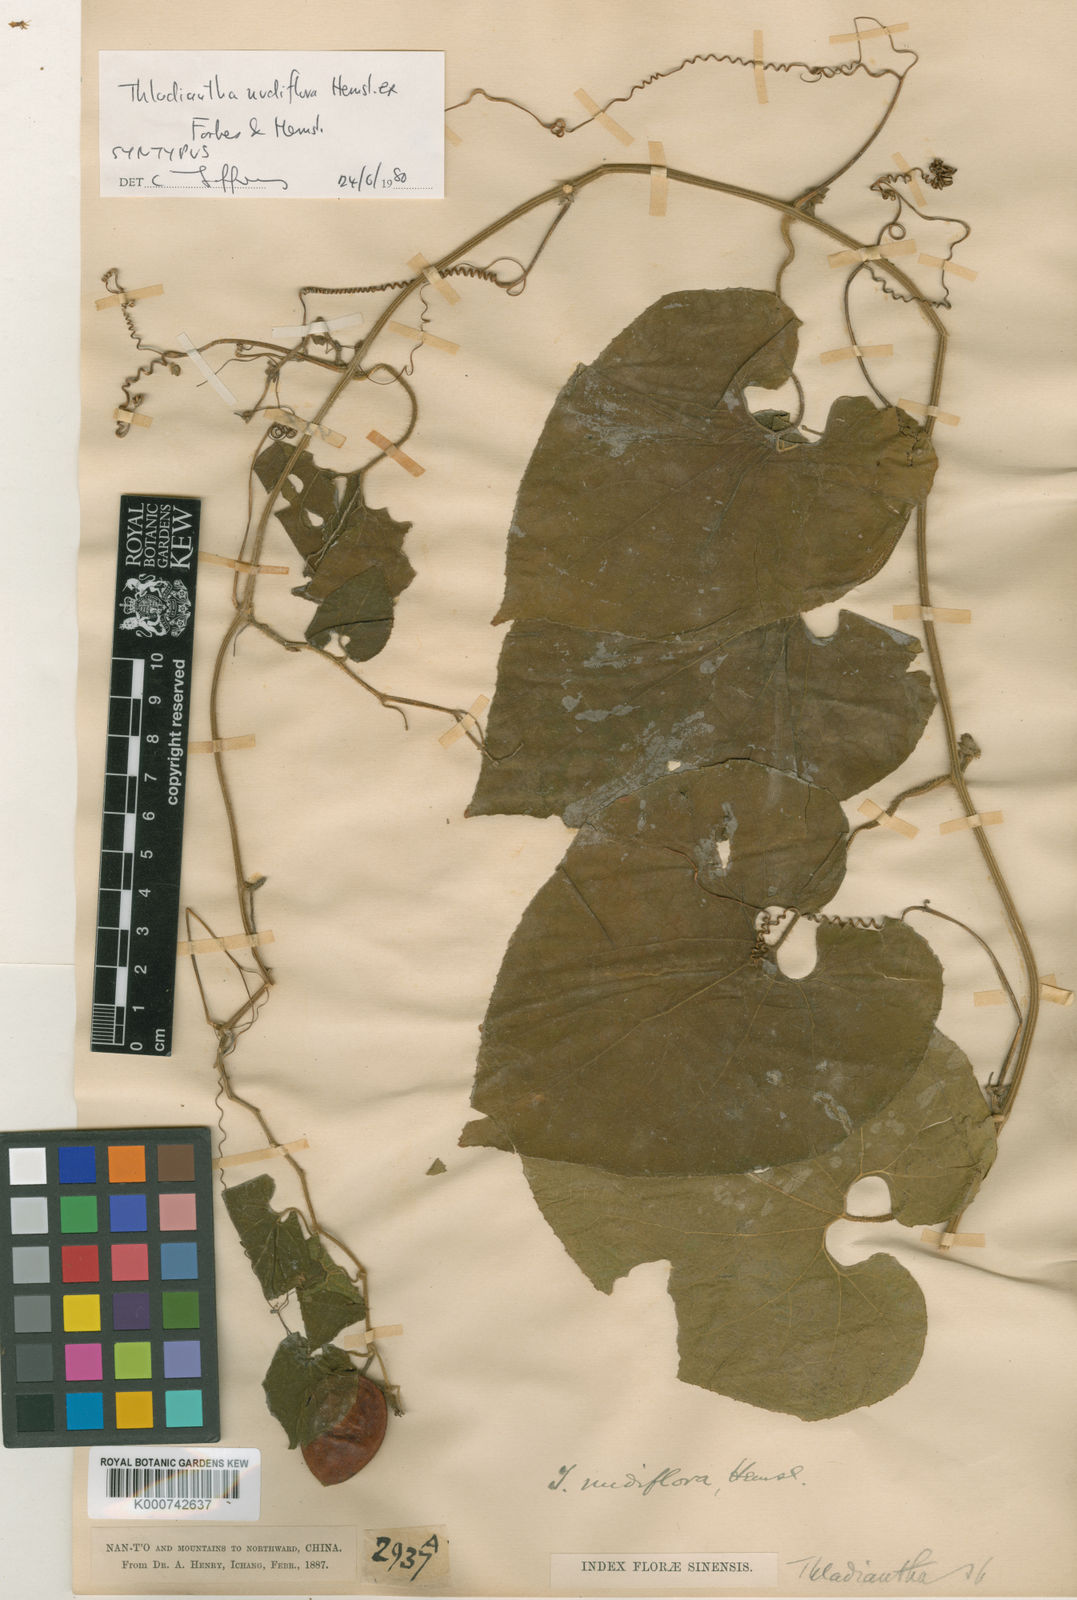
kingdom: Plantae
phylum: Tracheophyta
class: Magnoliopsida
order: Cucurbitales
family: Cucurbitaceae
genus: Thladiantha
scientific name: Thladiantha nudiflora
